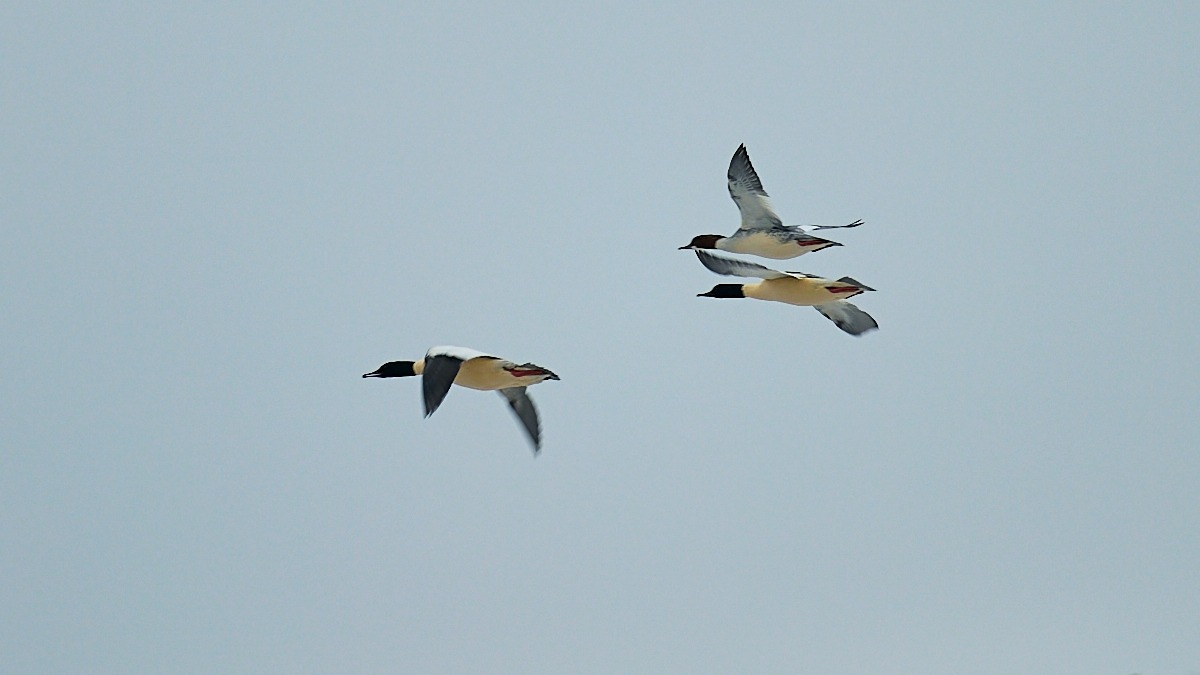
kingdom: Animalia
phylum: Chordata
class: Aves
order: Anseriformes
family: Anatidae
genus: Mergus
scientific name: Mergus merganser
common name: Stor skallesluger
